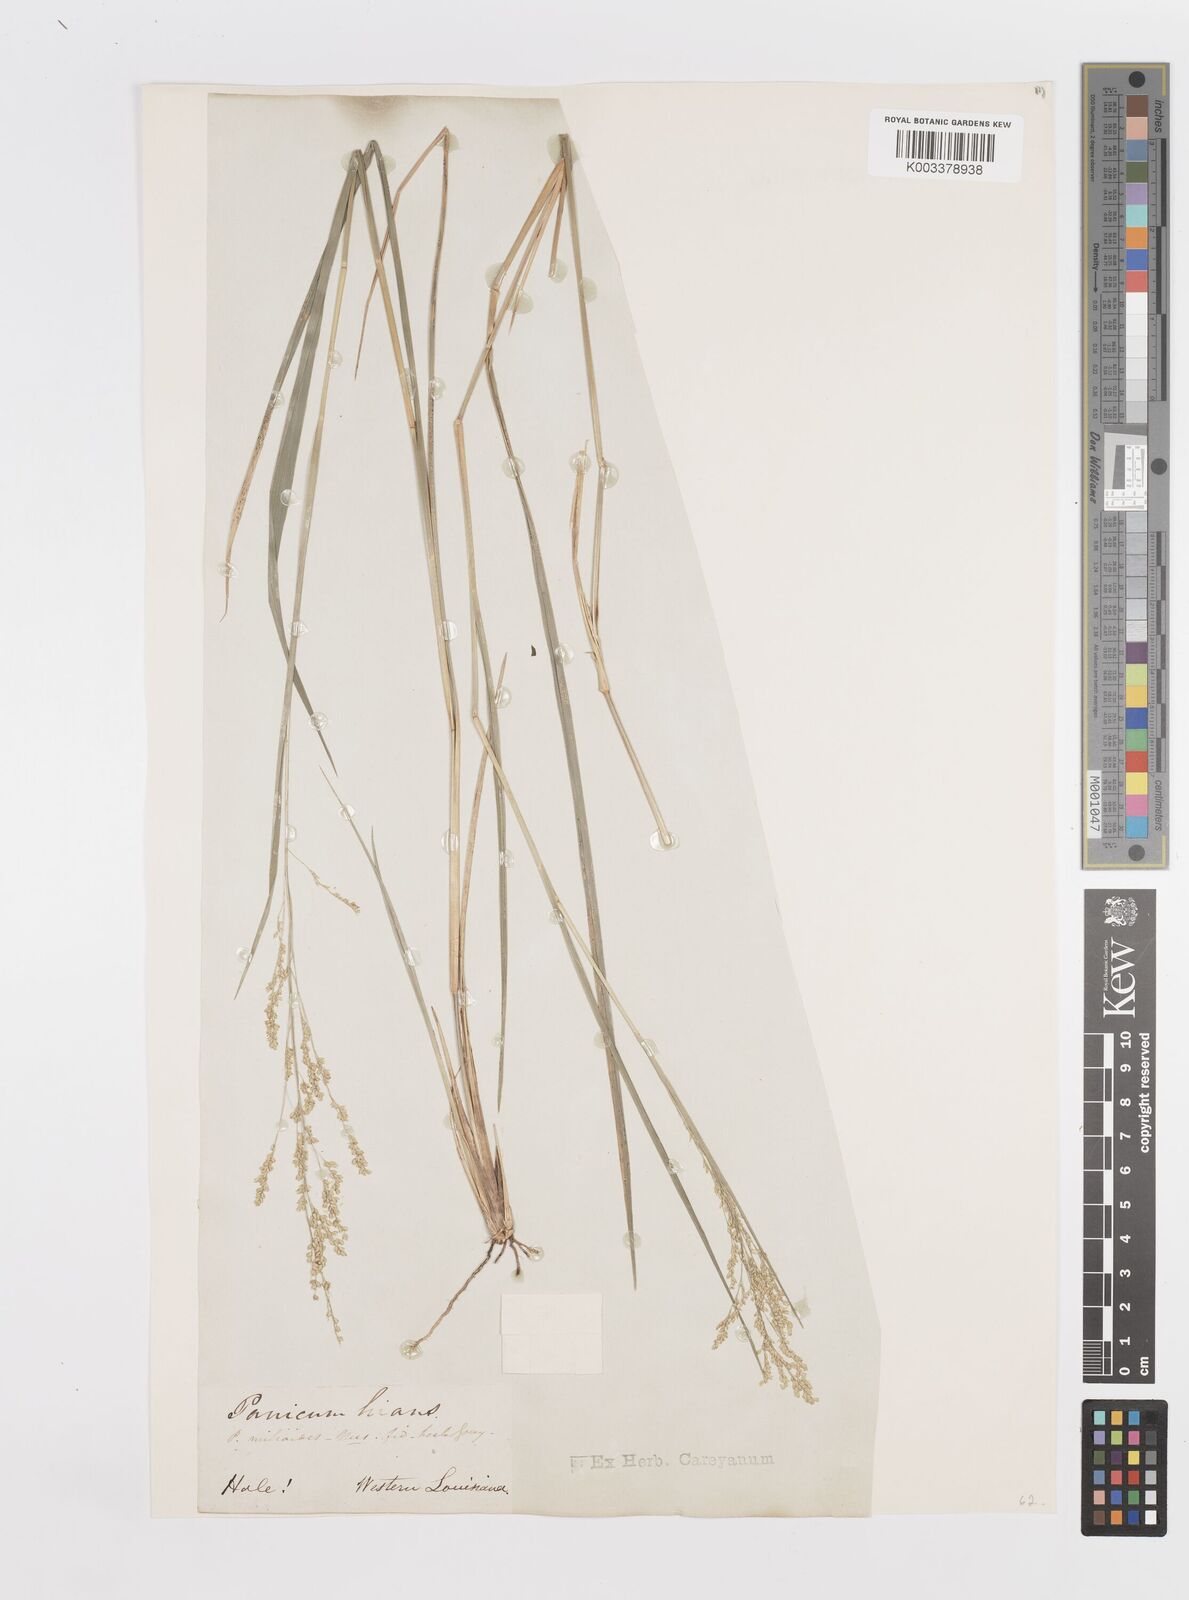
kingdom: Plantae
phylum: Tracheophyta
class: Liliopsida
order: Poales
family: Poaceae
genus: Steinchisma
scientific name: Steinchisma hians
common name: Gaping panic grass
